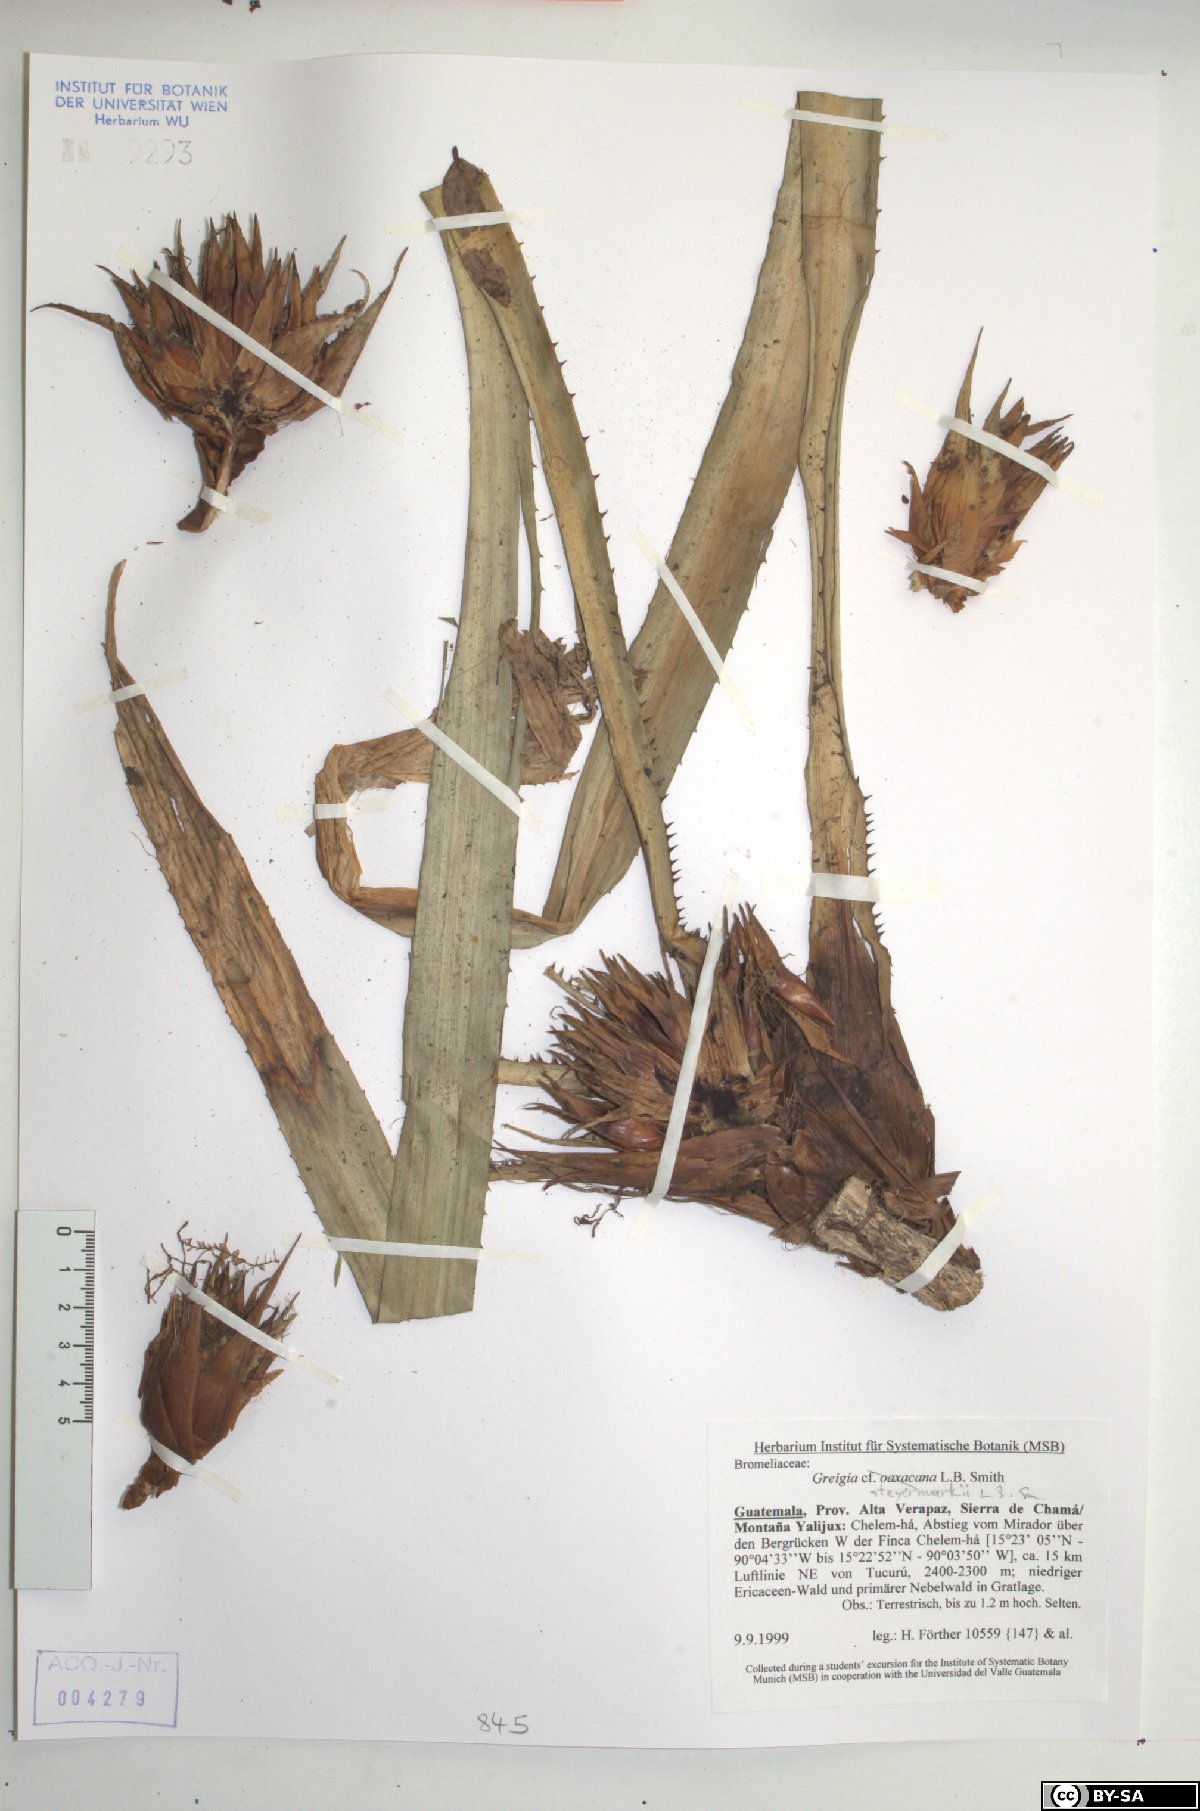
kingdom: Plantae
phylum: Tracheophyta
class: Liliopsida
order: Poales
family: Bromeliaceae
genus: Greigia
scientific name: Greigia steyermarkii
